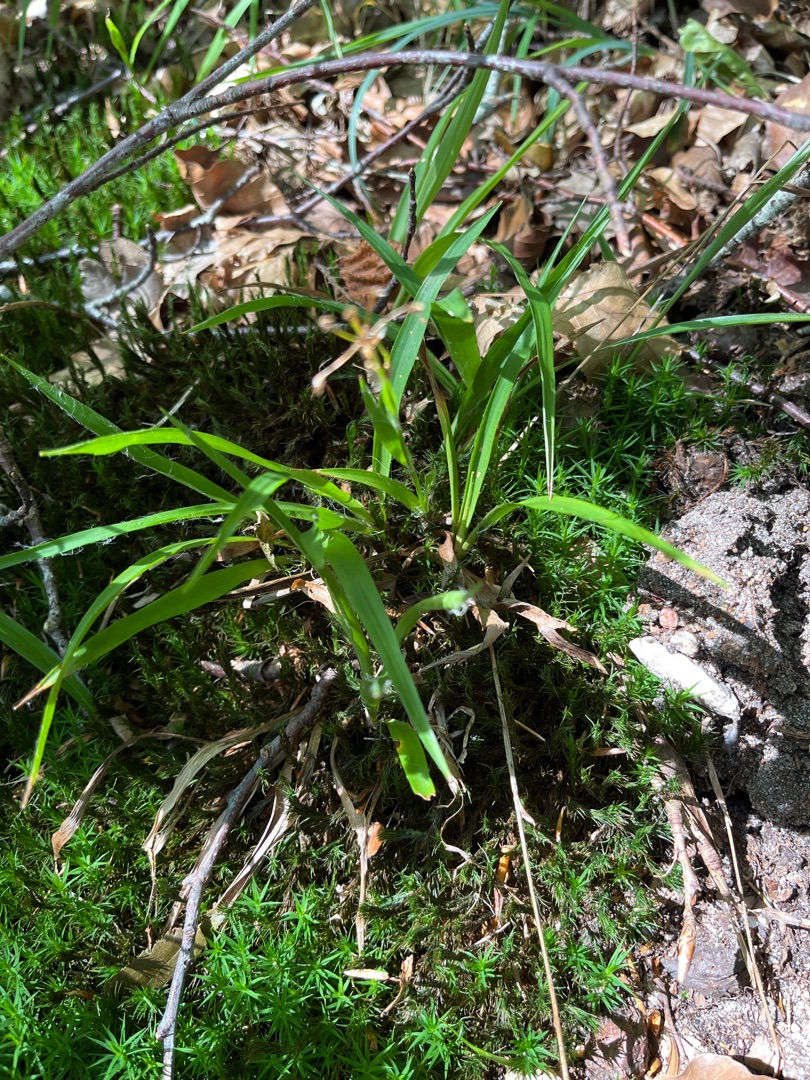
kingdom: Plantae
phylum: Tracheophyta
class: Liliopsida
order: Poales
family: Juncaceae
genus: Luzula
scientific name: Luzula pilosa
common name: Håret frytle
